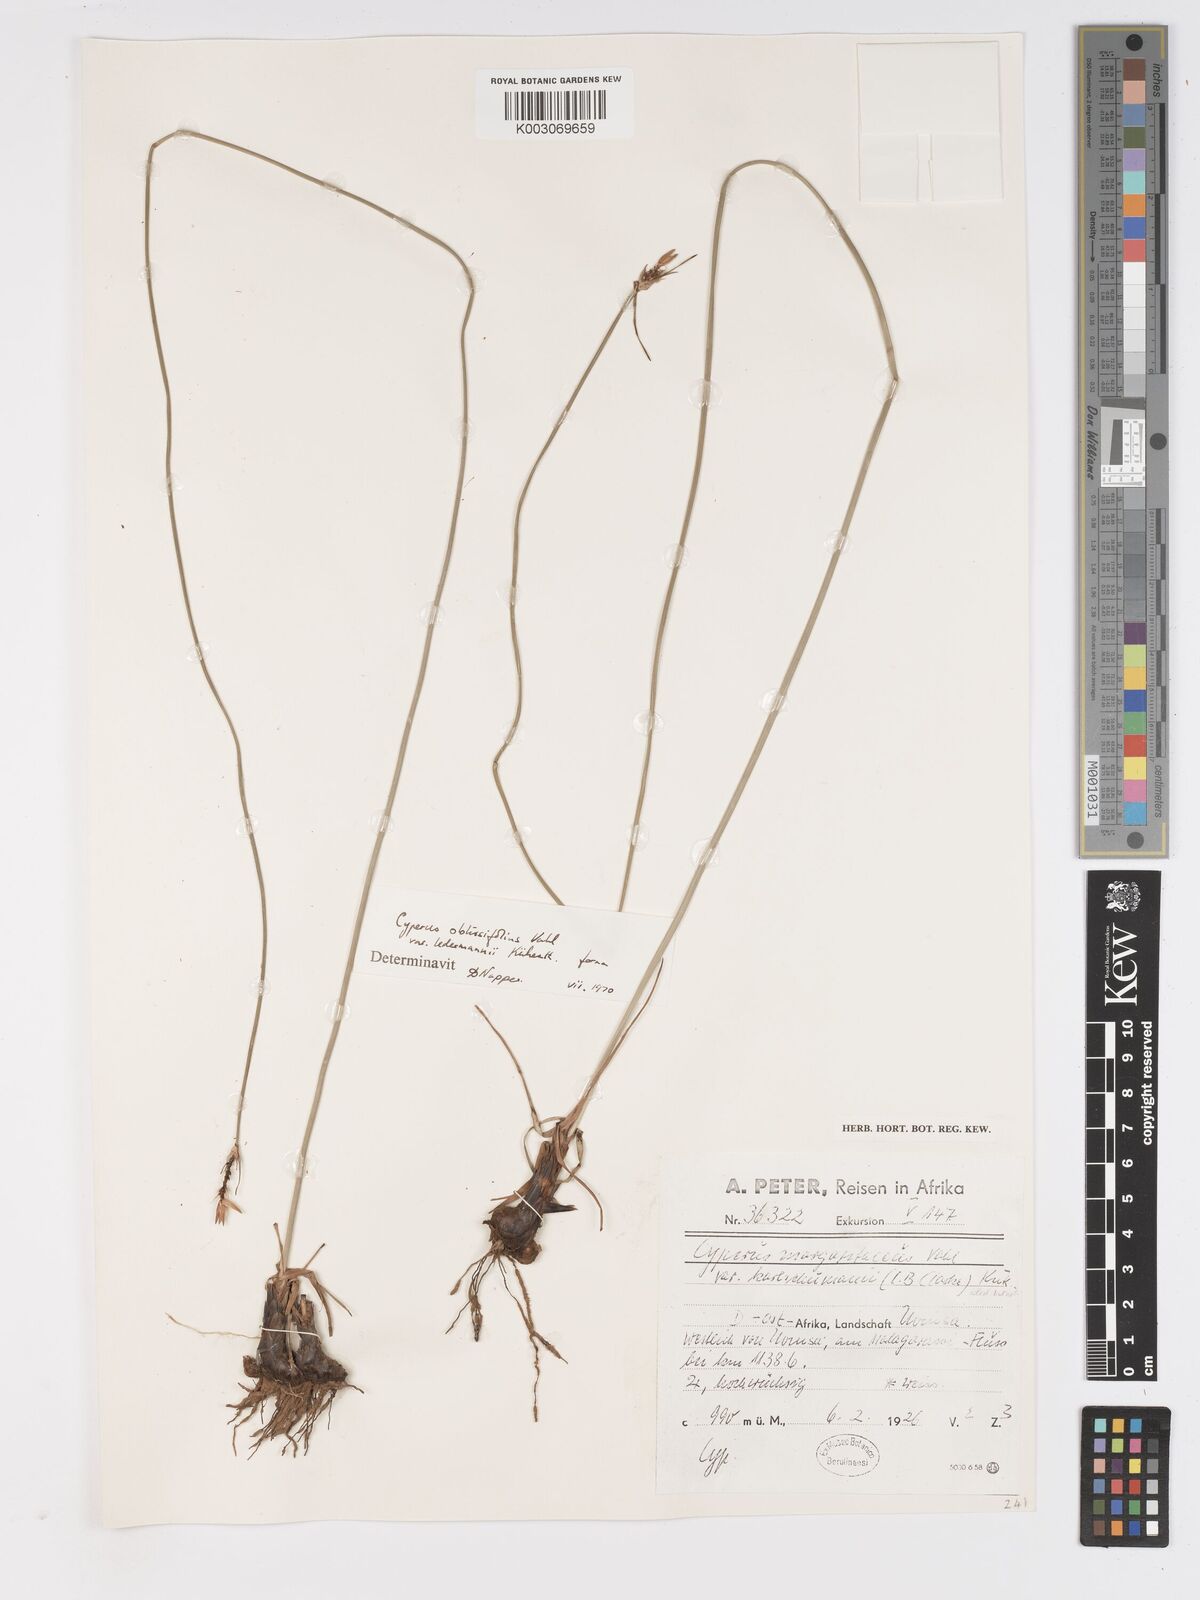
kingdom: Plantae
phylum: Tracheophyta
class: Liliopsida
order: Poales
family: Cyperaceae
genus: Cyperus
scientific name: Cyperus margaritaceus
